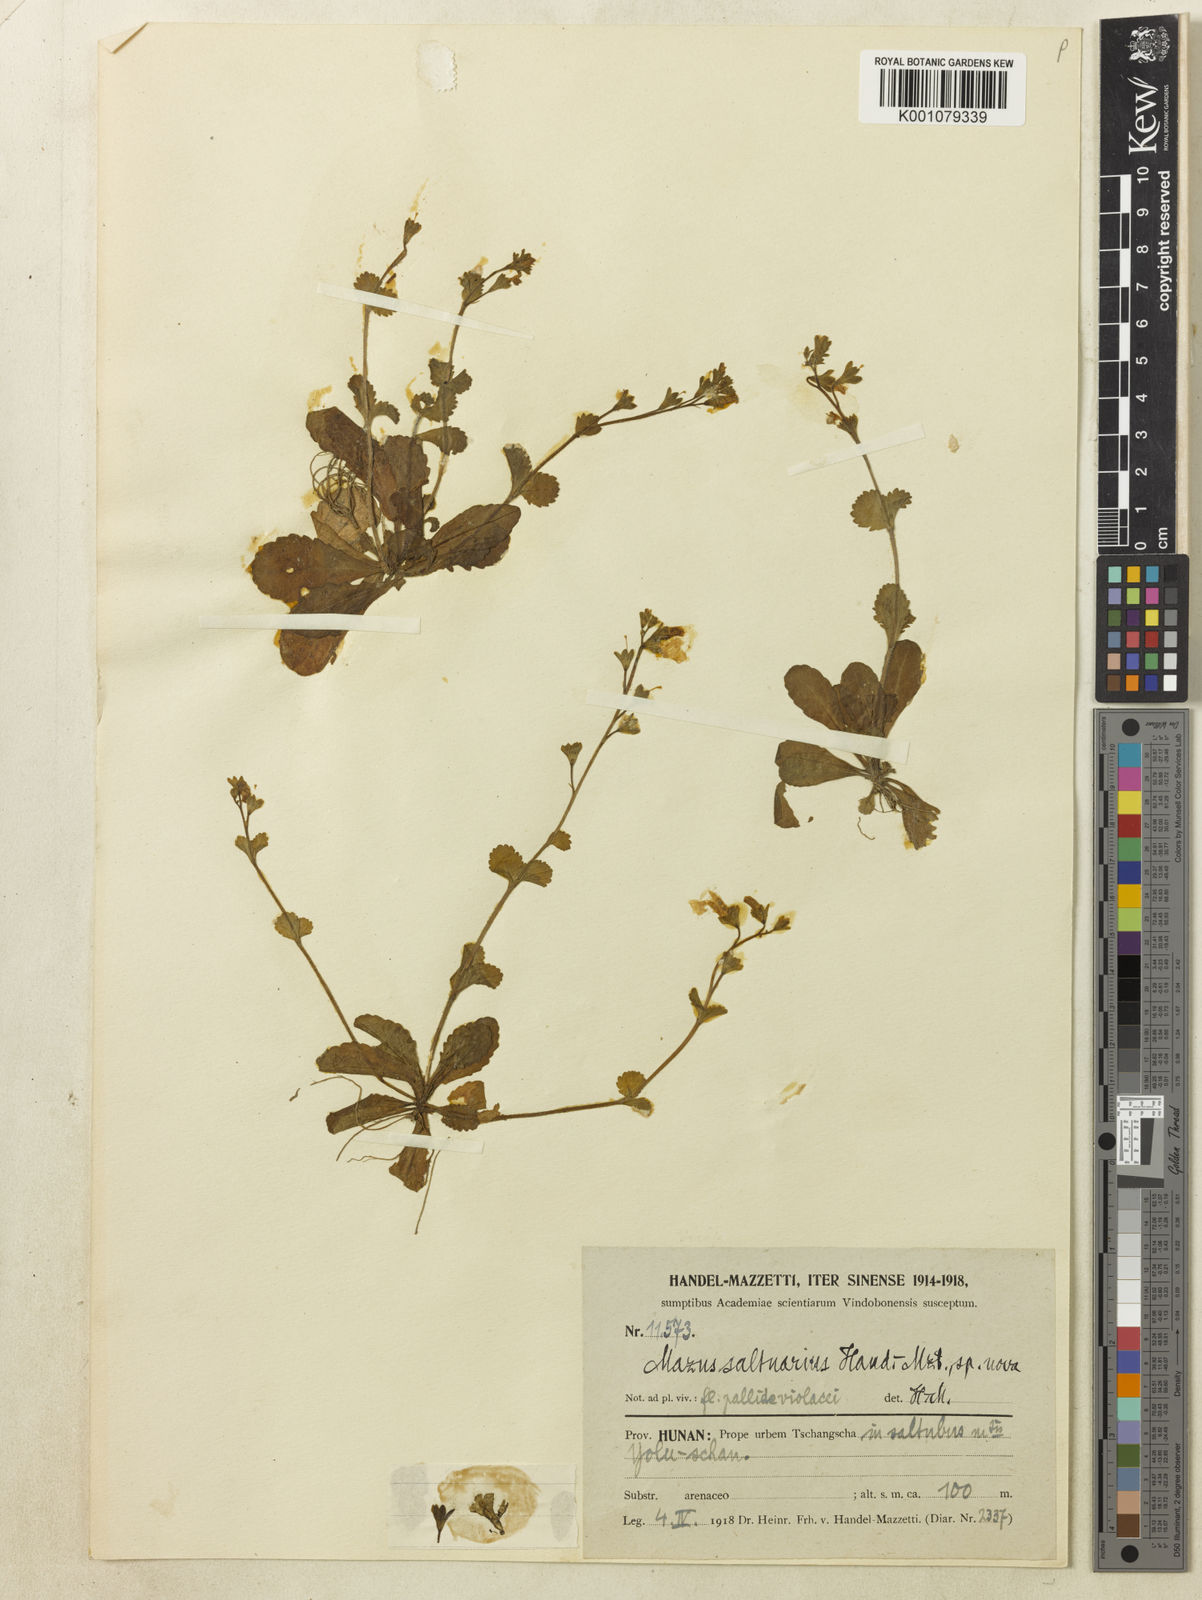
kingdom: Plantae
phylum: Tracheophyta
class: Magnoliopsida
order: Lamiales
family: Mazaceae
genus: Mazus
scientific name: Mazus saltuarius
